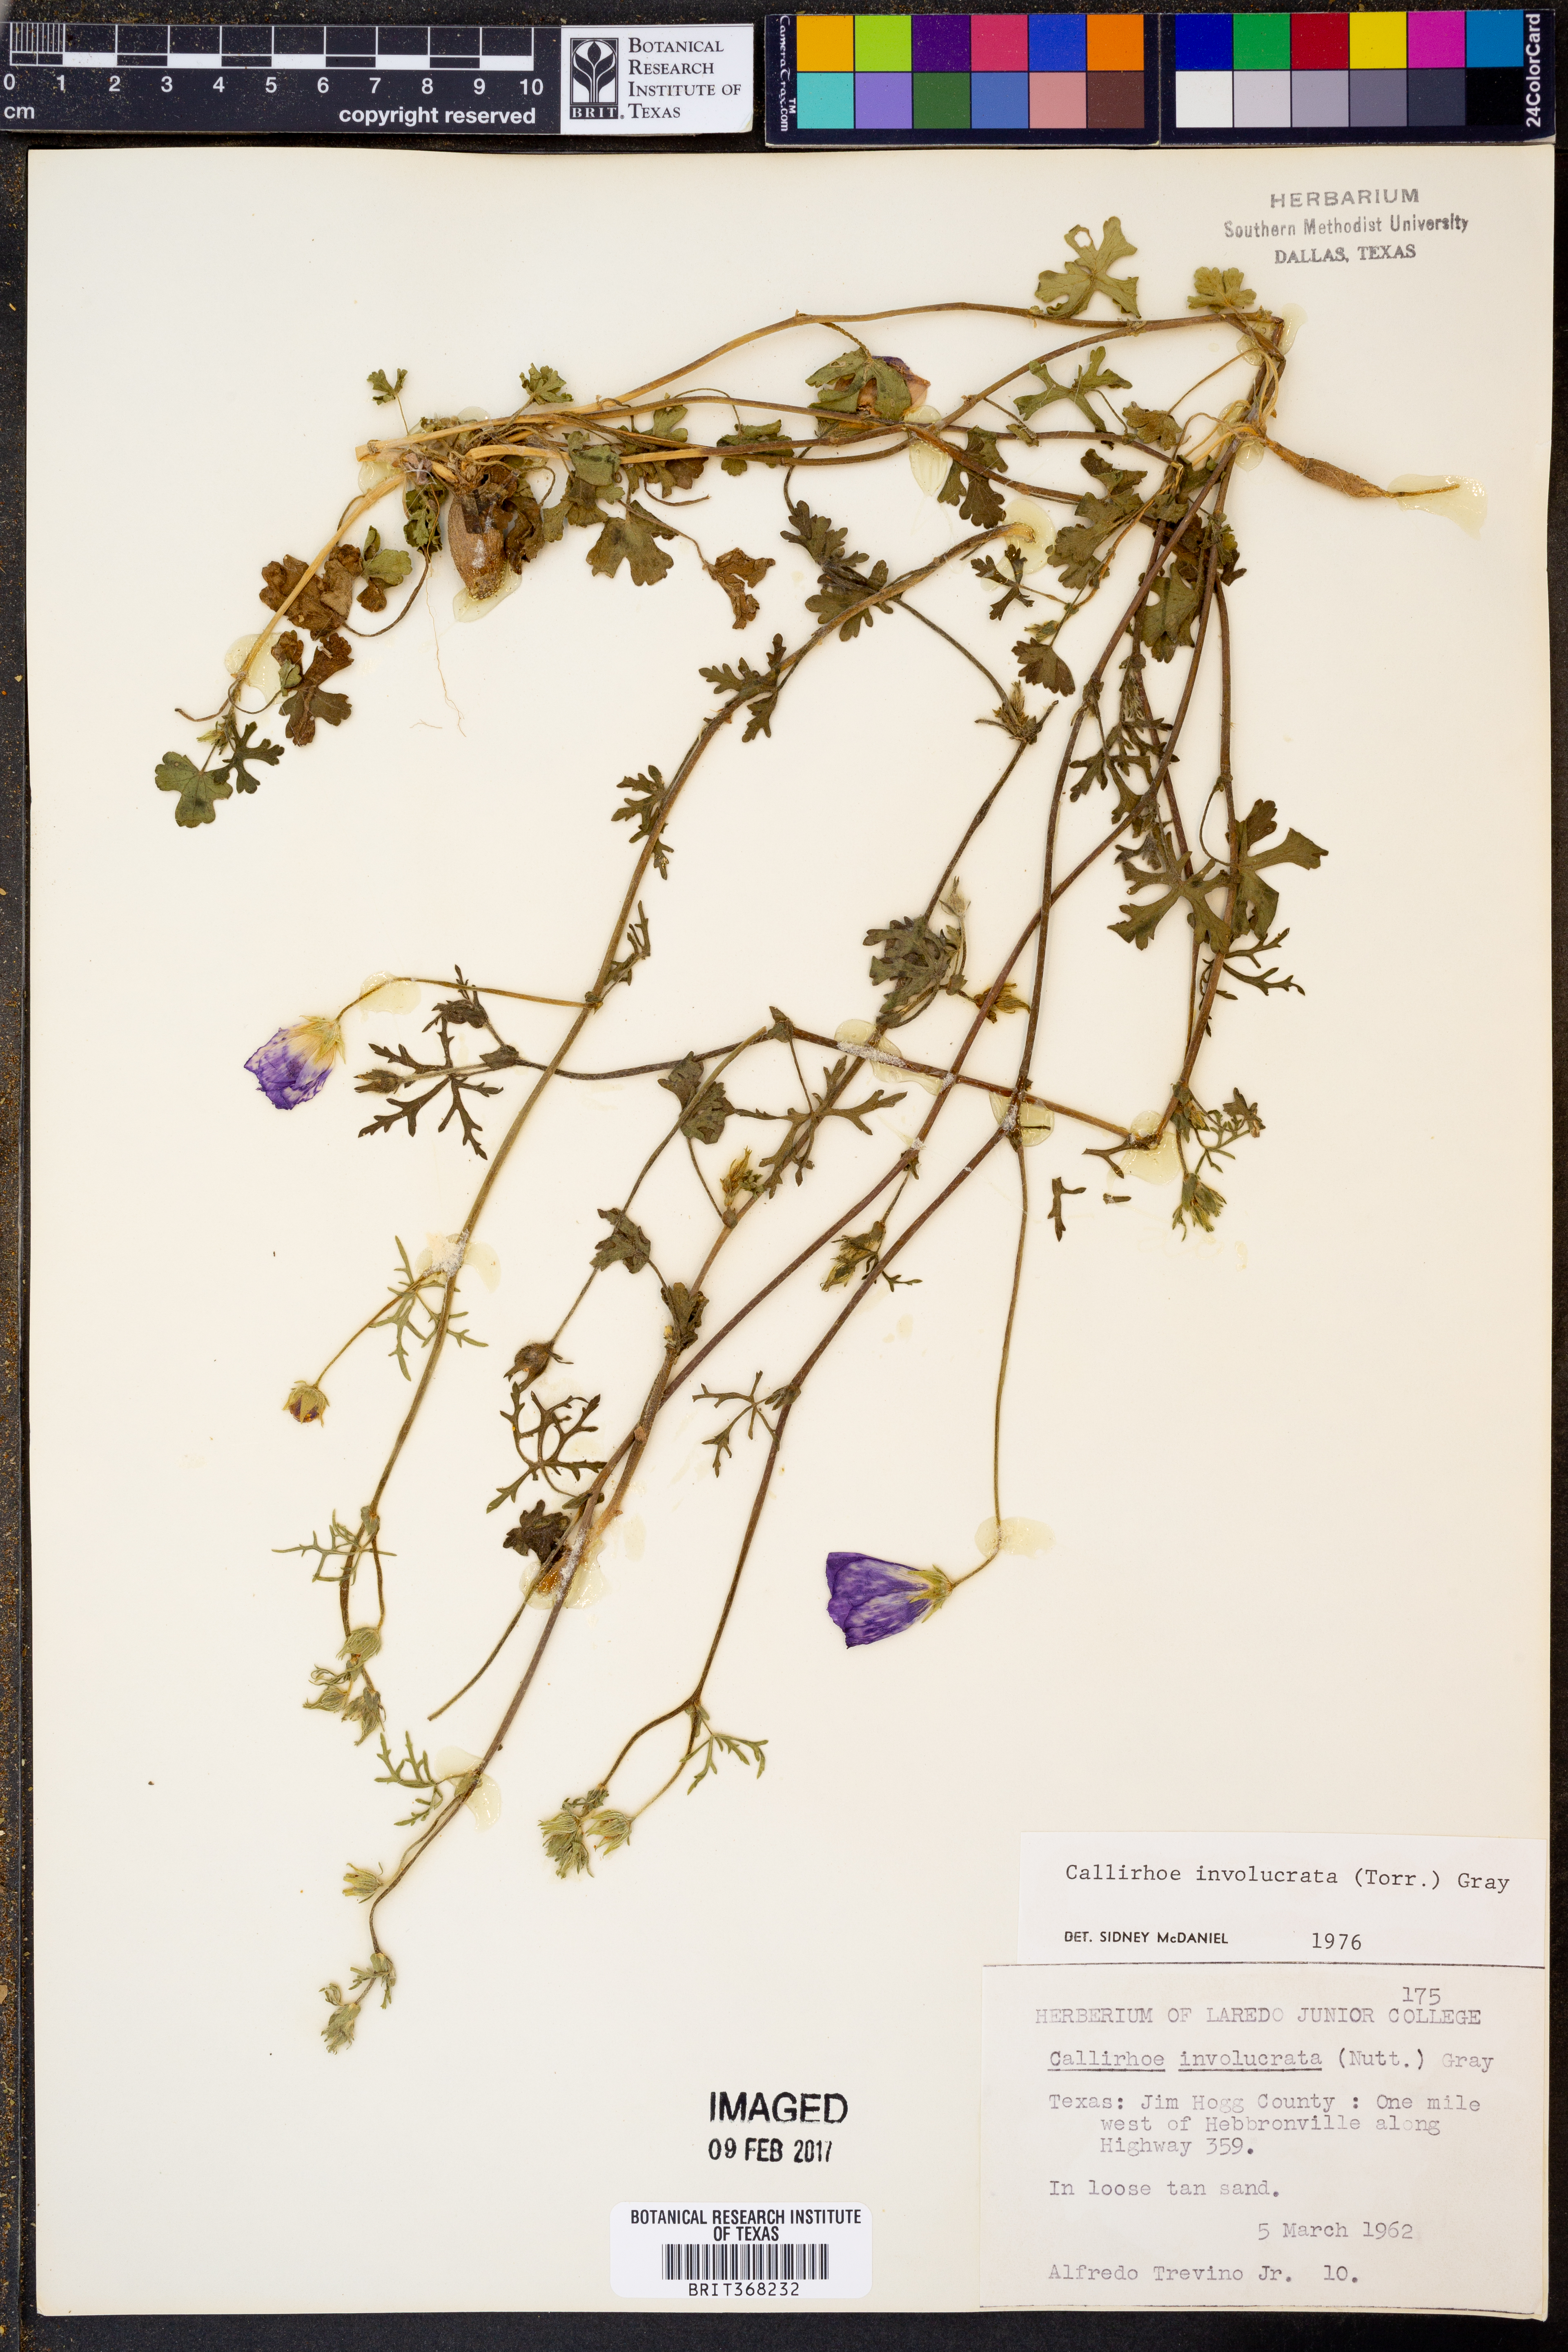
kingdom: Plantae
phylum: Tracheophyta
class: Magnoliopsida
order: Malvales
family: Malvaceae
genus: Callirhoe
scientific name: Callirhoe involucrata
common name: Purple poppy-mallow
